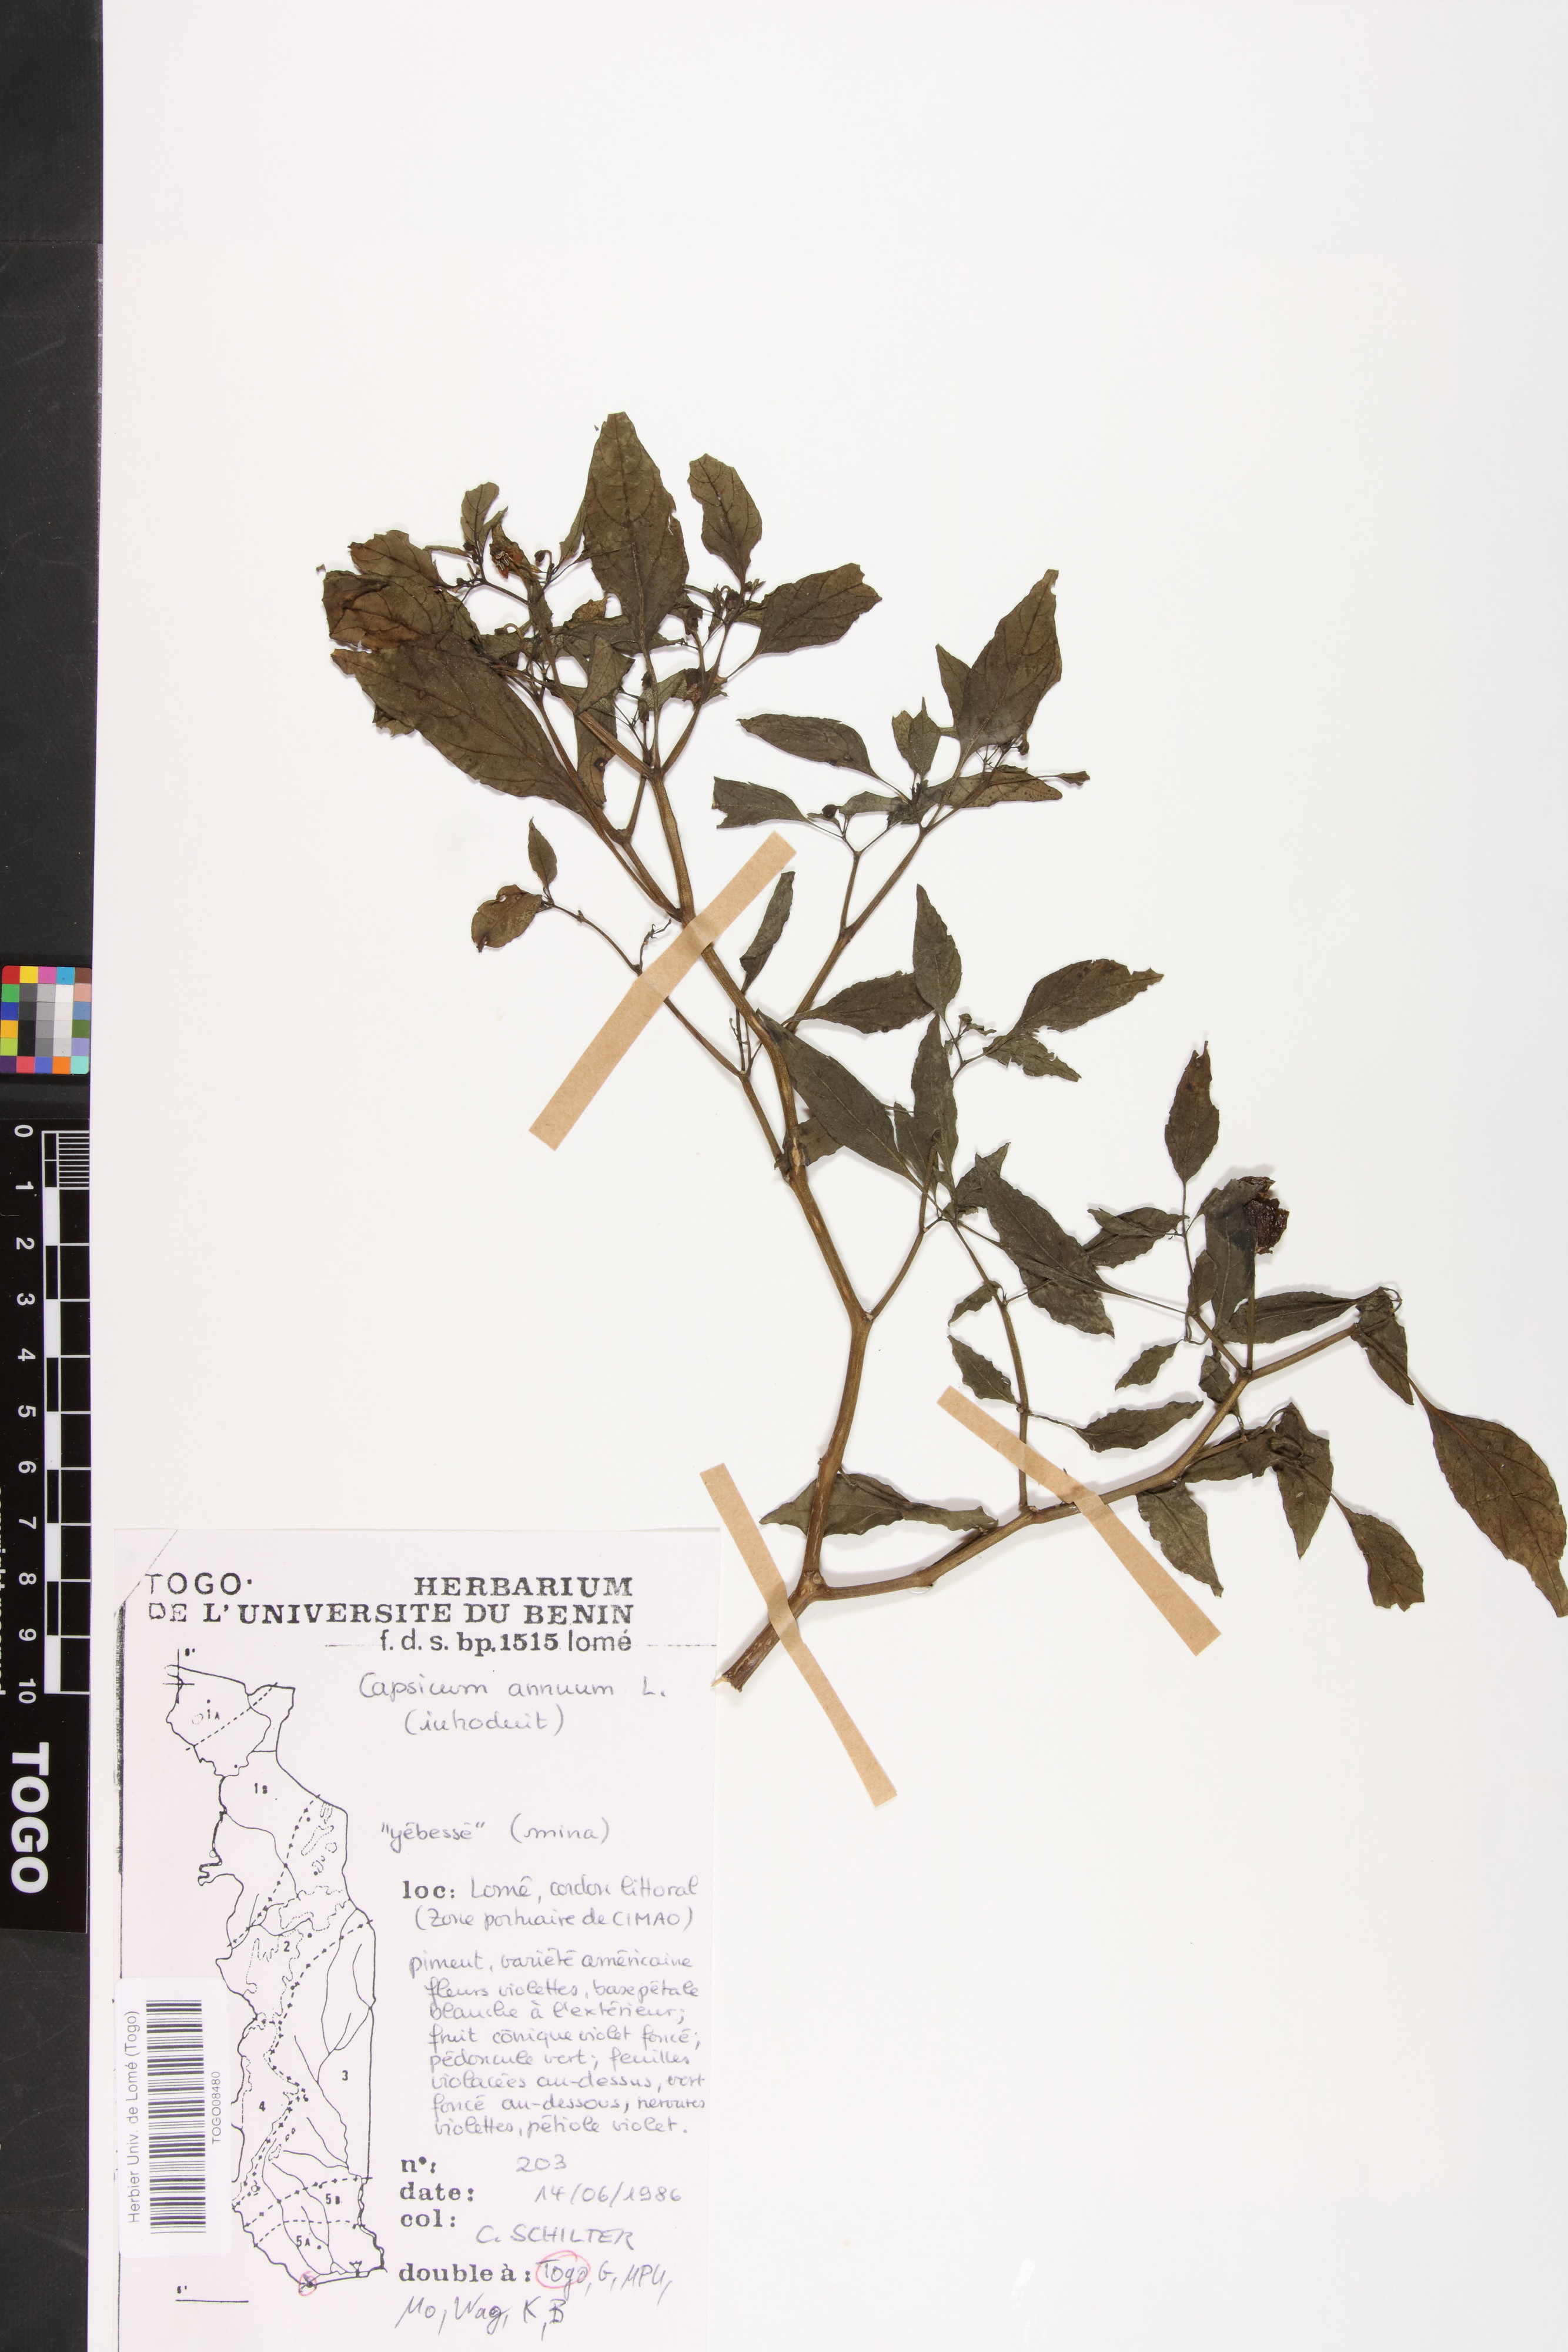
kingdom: Plantae
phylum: Tracheophyta
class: Magnoliopsida
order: Solanales
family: Solanaceae
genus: Capsicum
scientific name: Capsicum annuum
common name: Sweet pepper
